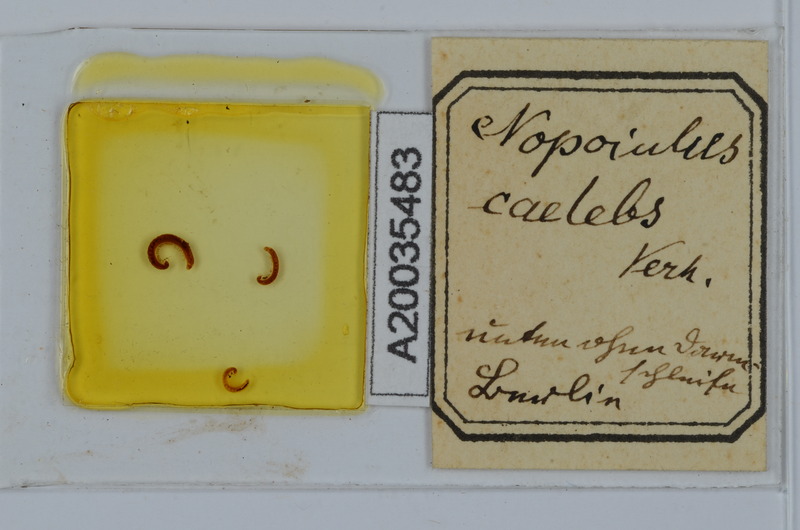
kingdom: Animalia
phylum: Arthropoda
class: Diplopoda
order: Julida
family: Blaniulidae
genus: Proteroiulus
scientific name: Proteroiulus fuscus
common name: Millipede
